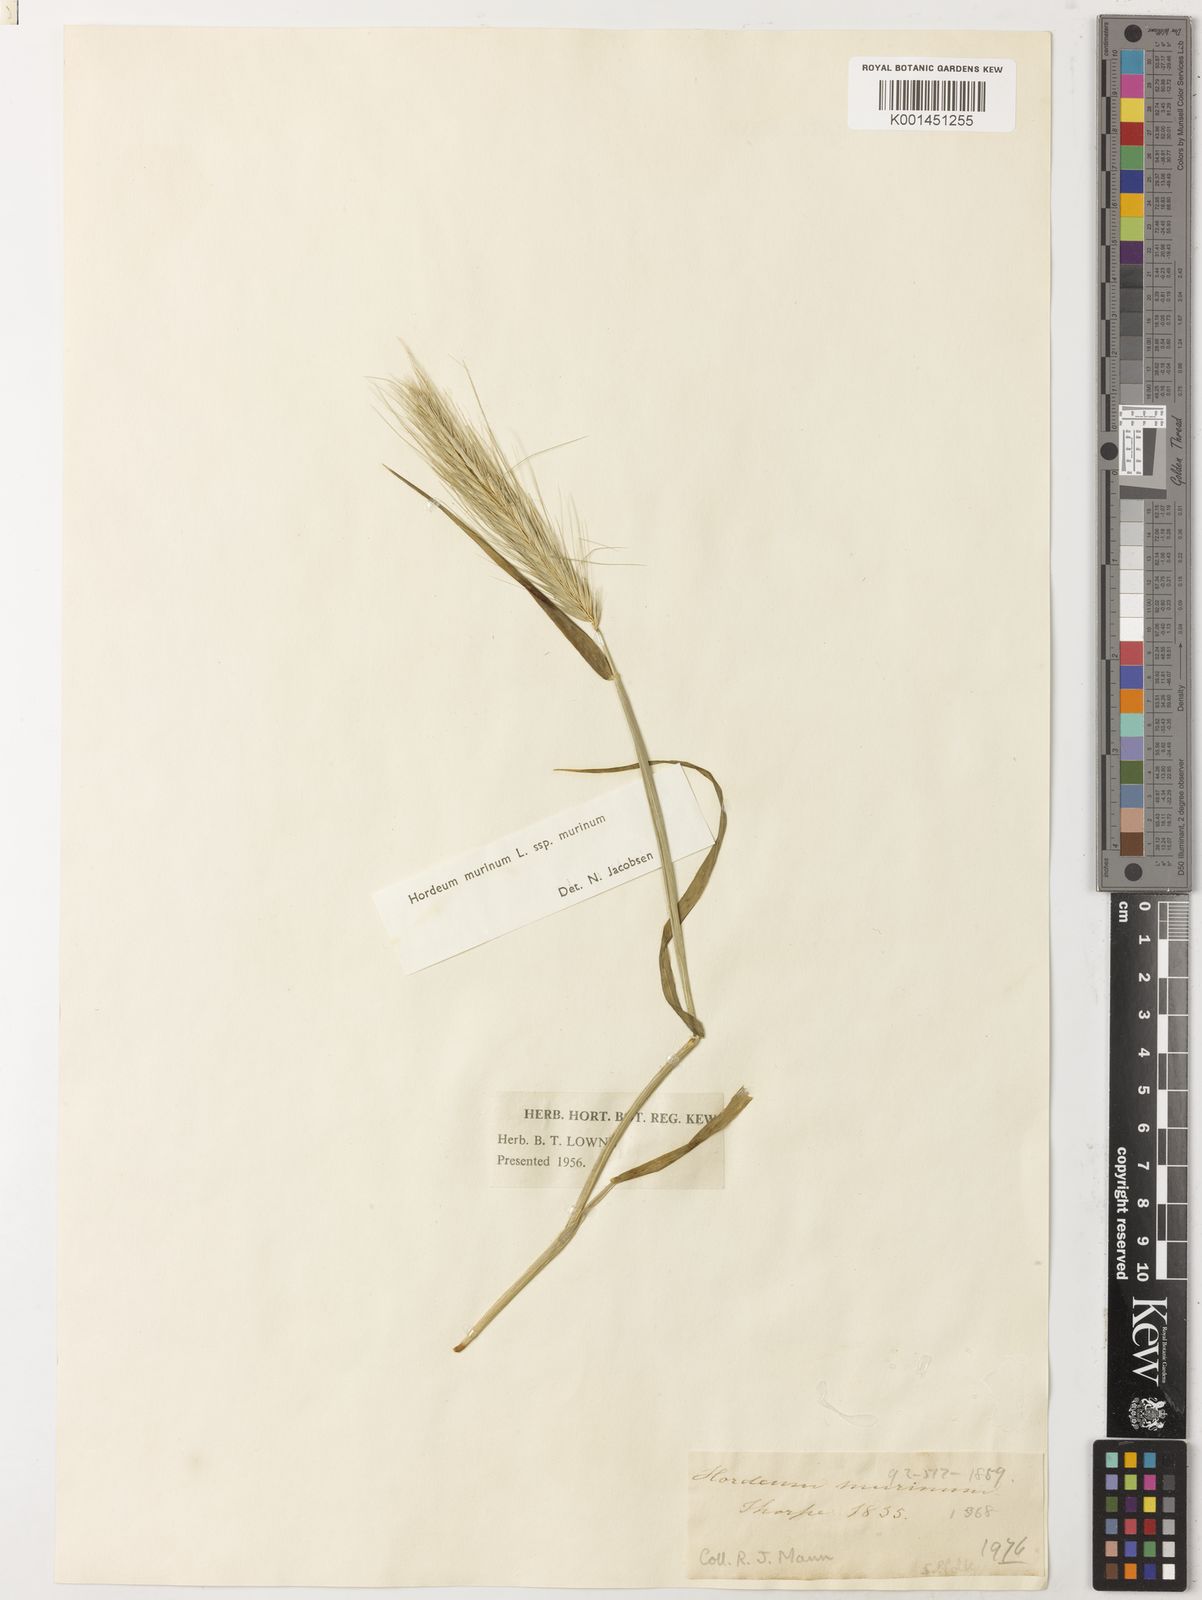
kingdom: Plantae
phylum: Tracheophyta
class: Liliopsida
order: Poales
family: Poaceae
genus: Hordeum
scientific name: Hordeum murinum
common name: Wall barley
